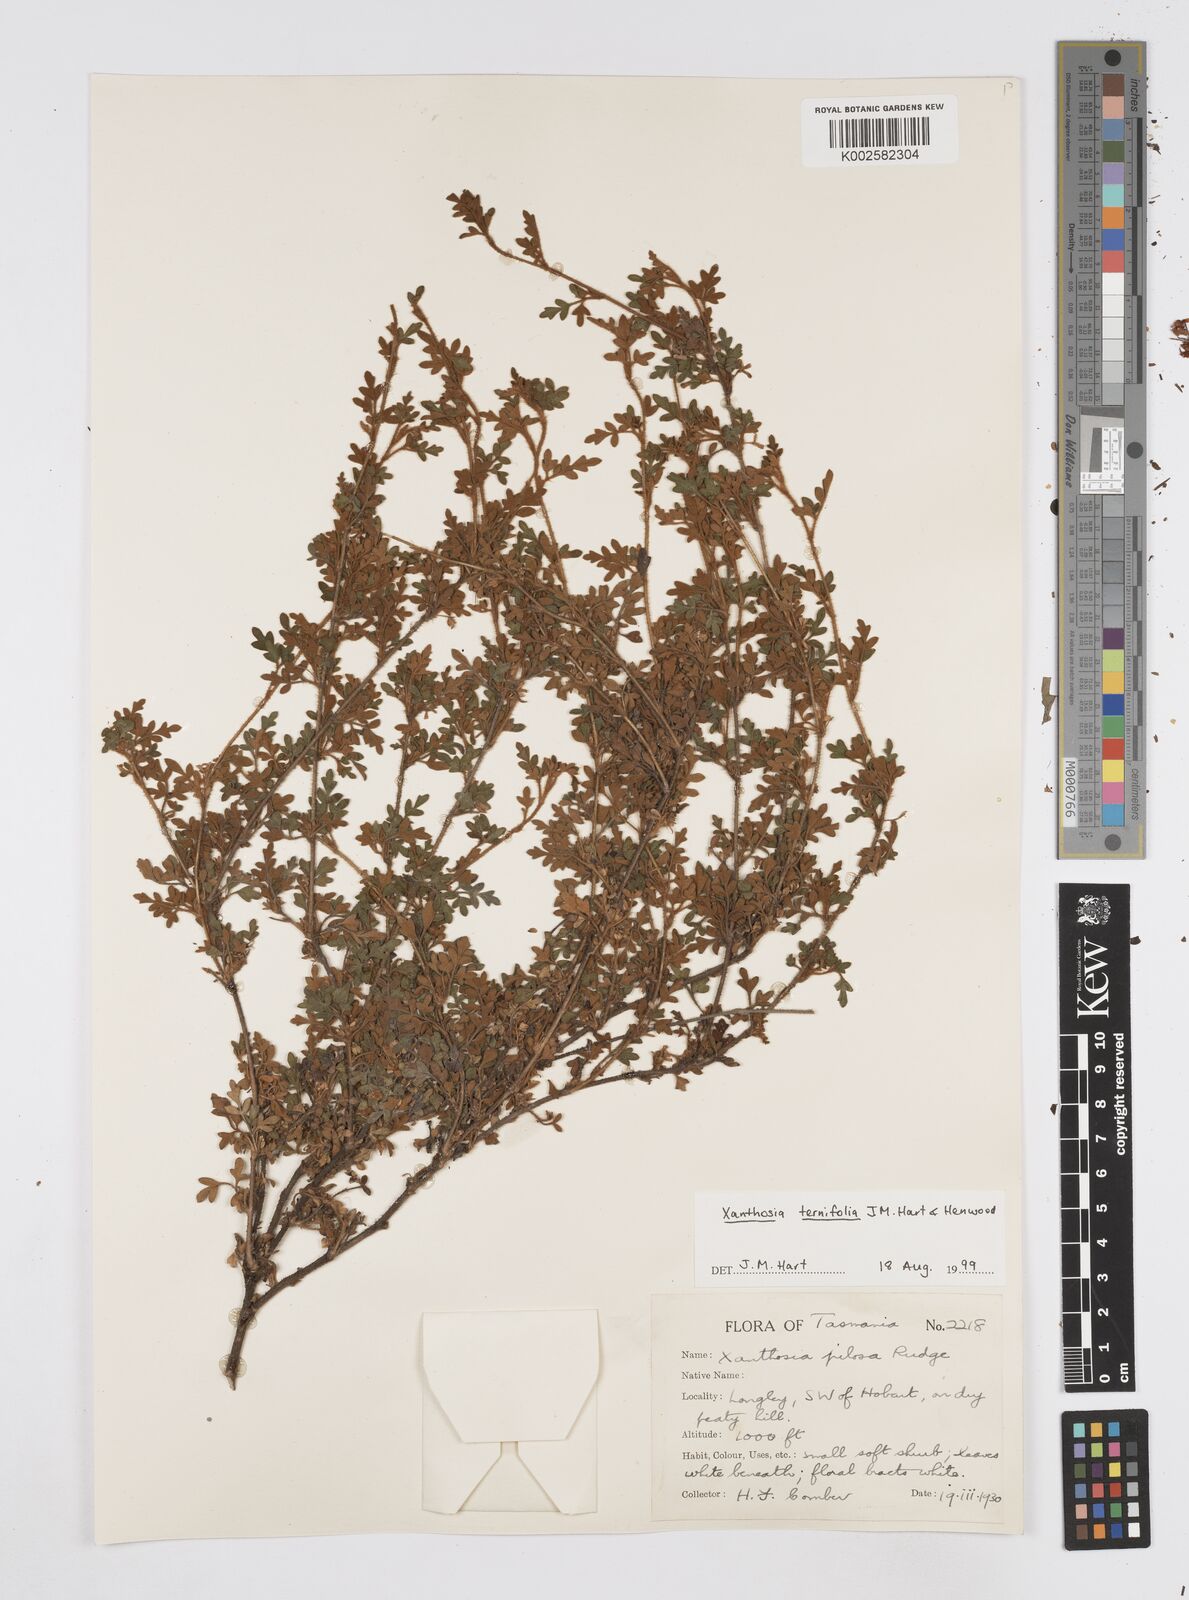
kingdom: Plantae
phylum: Tracheophyta
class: Magnoliopsida
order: Apiales
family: Apiaceae
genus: Xanthosia
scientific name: Xanthosia ternifolia
